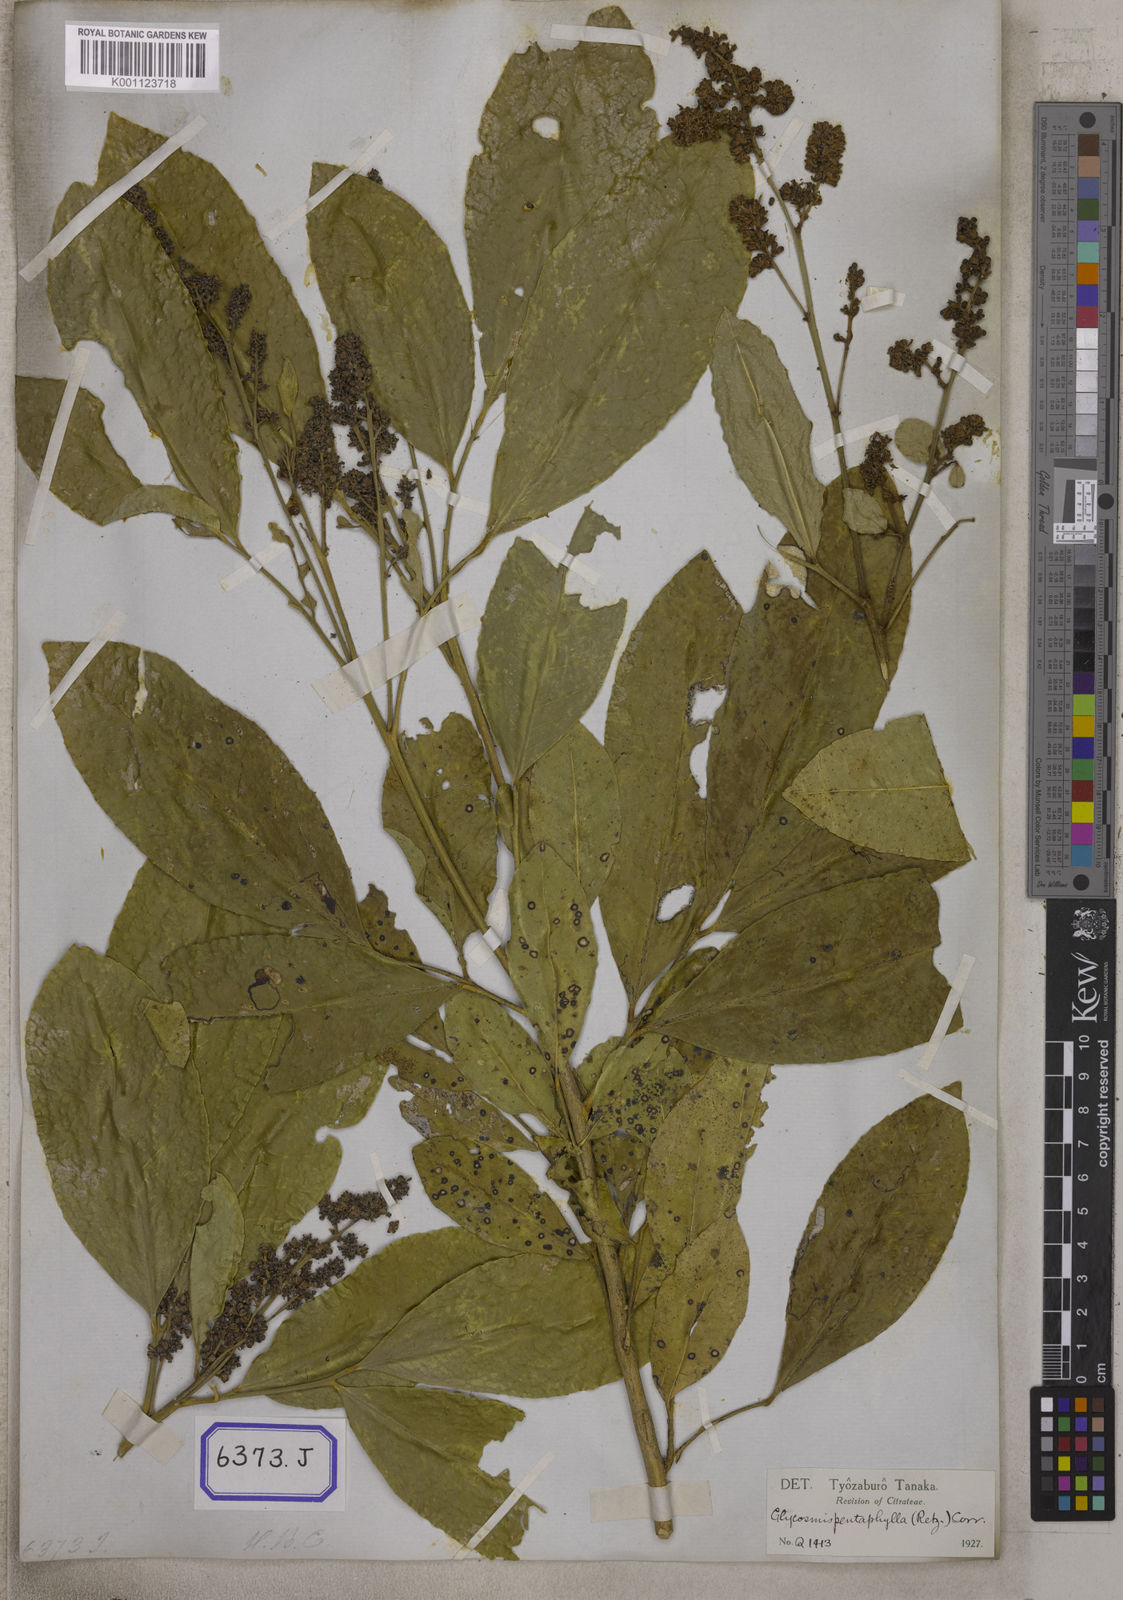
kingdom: Plantae
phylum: Tracheophyta
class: Magnoliopsida
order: Sapindales
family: Rutaceae
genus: Glycosmis
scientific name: Glycosmis pentaphylla
